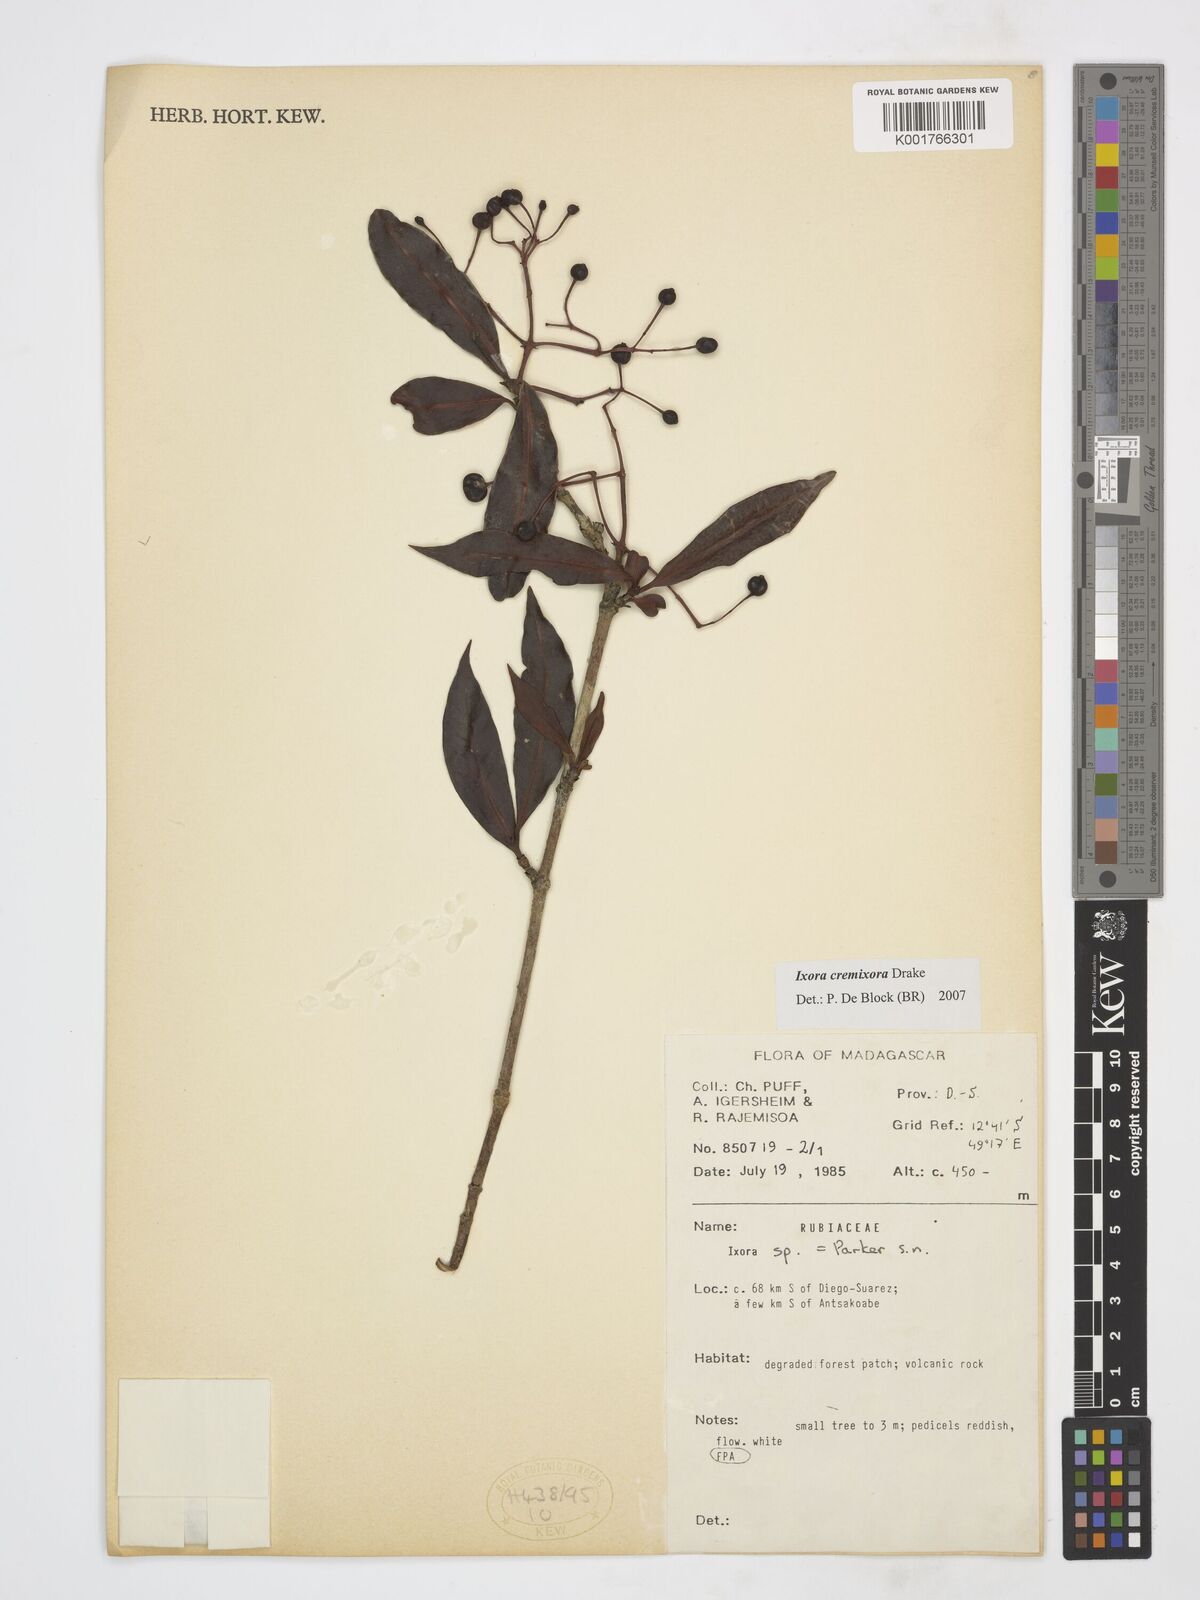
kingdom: Plantae
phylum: Tracheophyta
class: Magnoliopsida
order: Gentianales
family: Rubiaceae
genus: Ixora
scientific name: Ixora cremixora
